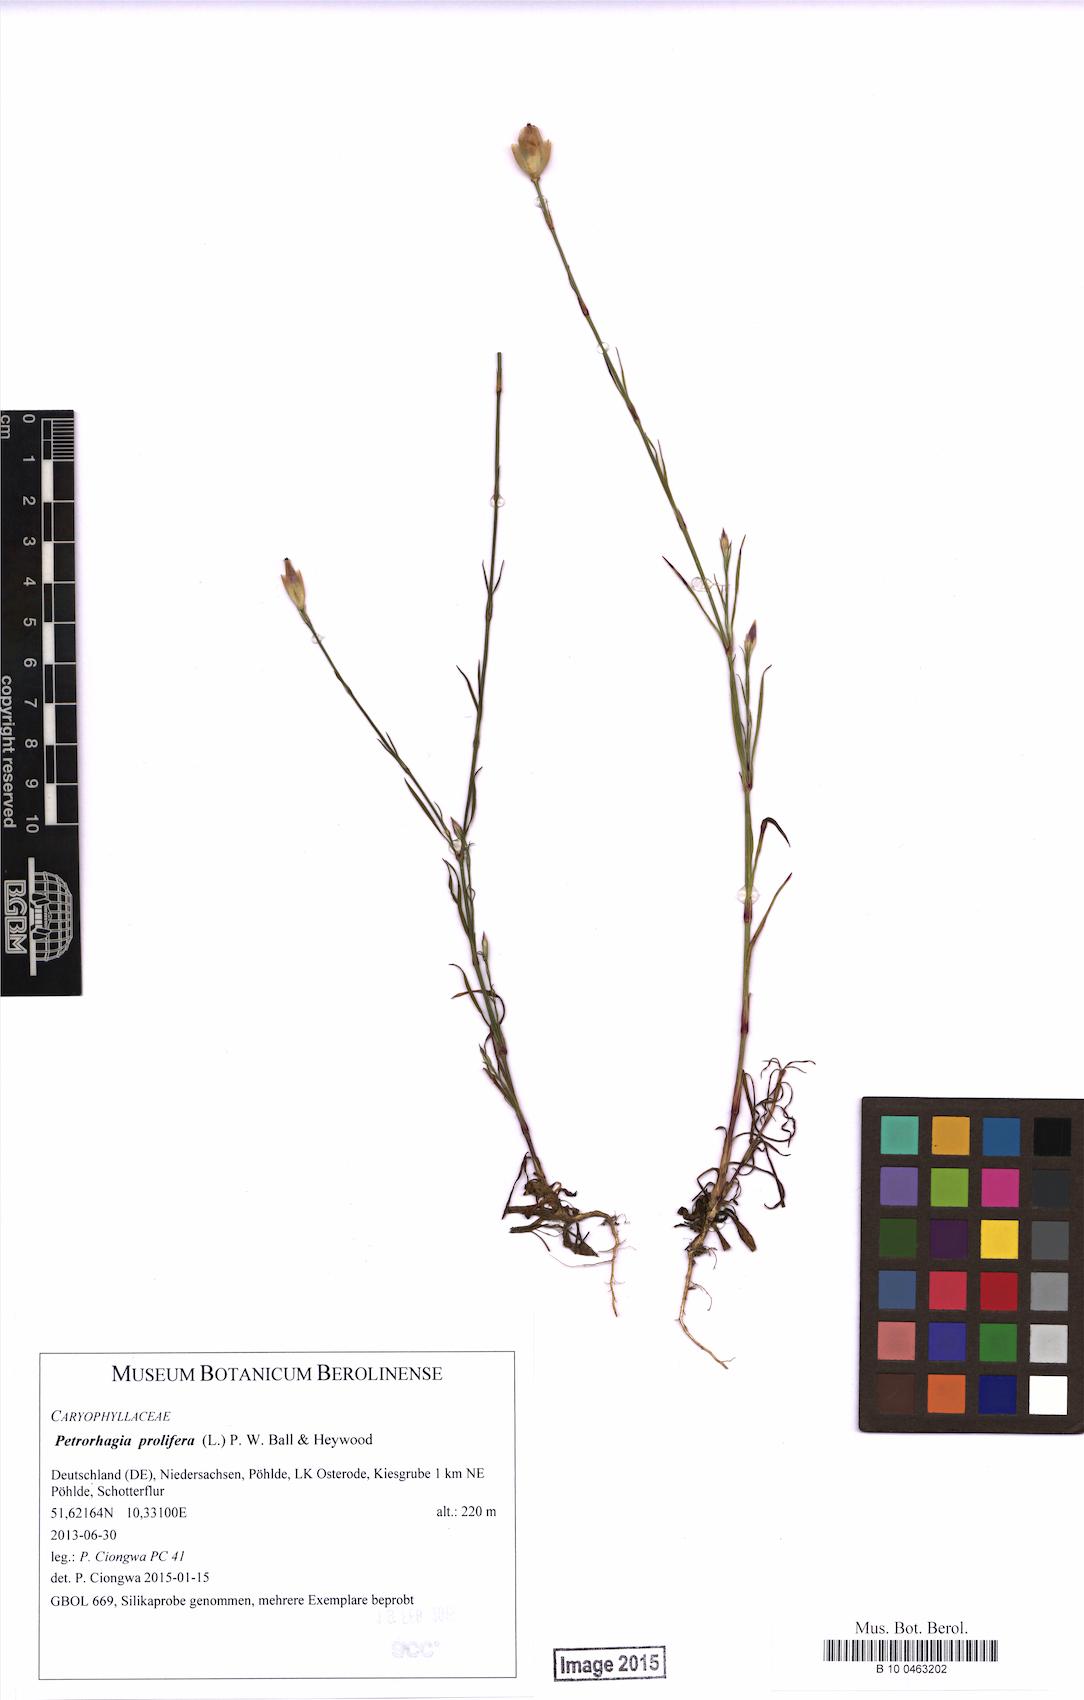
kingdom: Plantae
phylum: Tracheophyta
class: Magnoliopsida
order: Caryophyllales
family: Caryophyllaceae
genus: Petrorhagia
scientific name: Petrorhagia prolifera
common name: Proliferous pink
